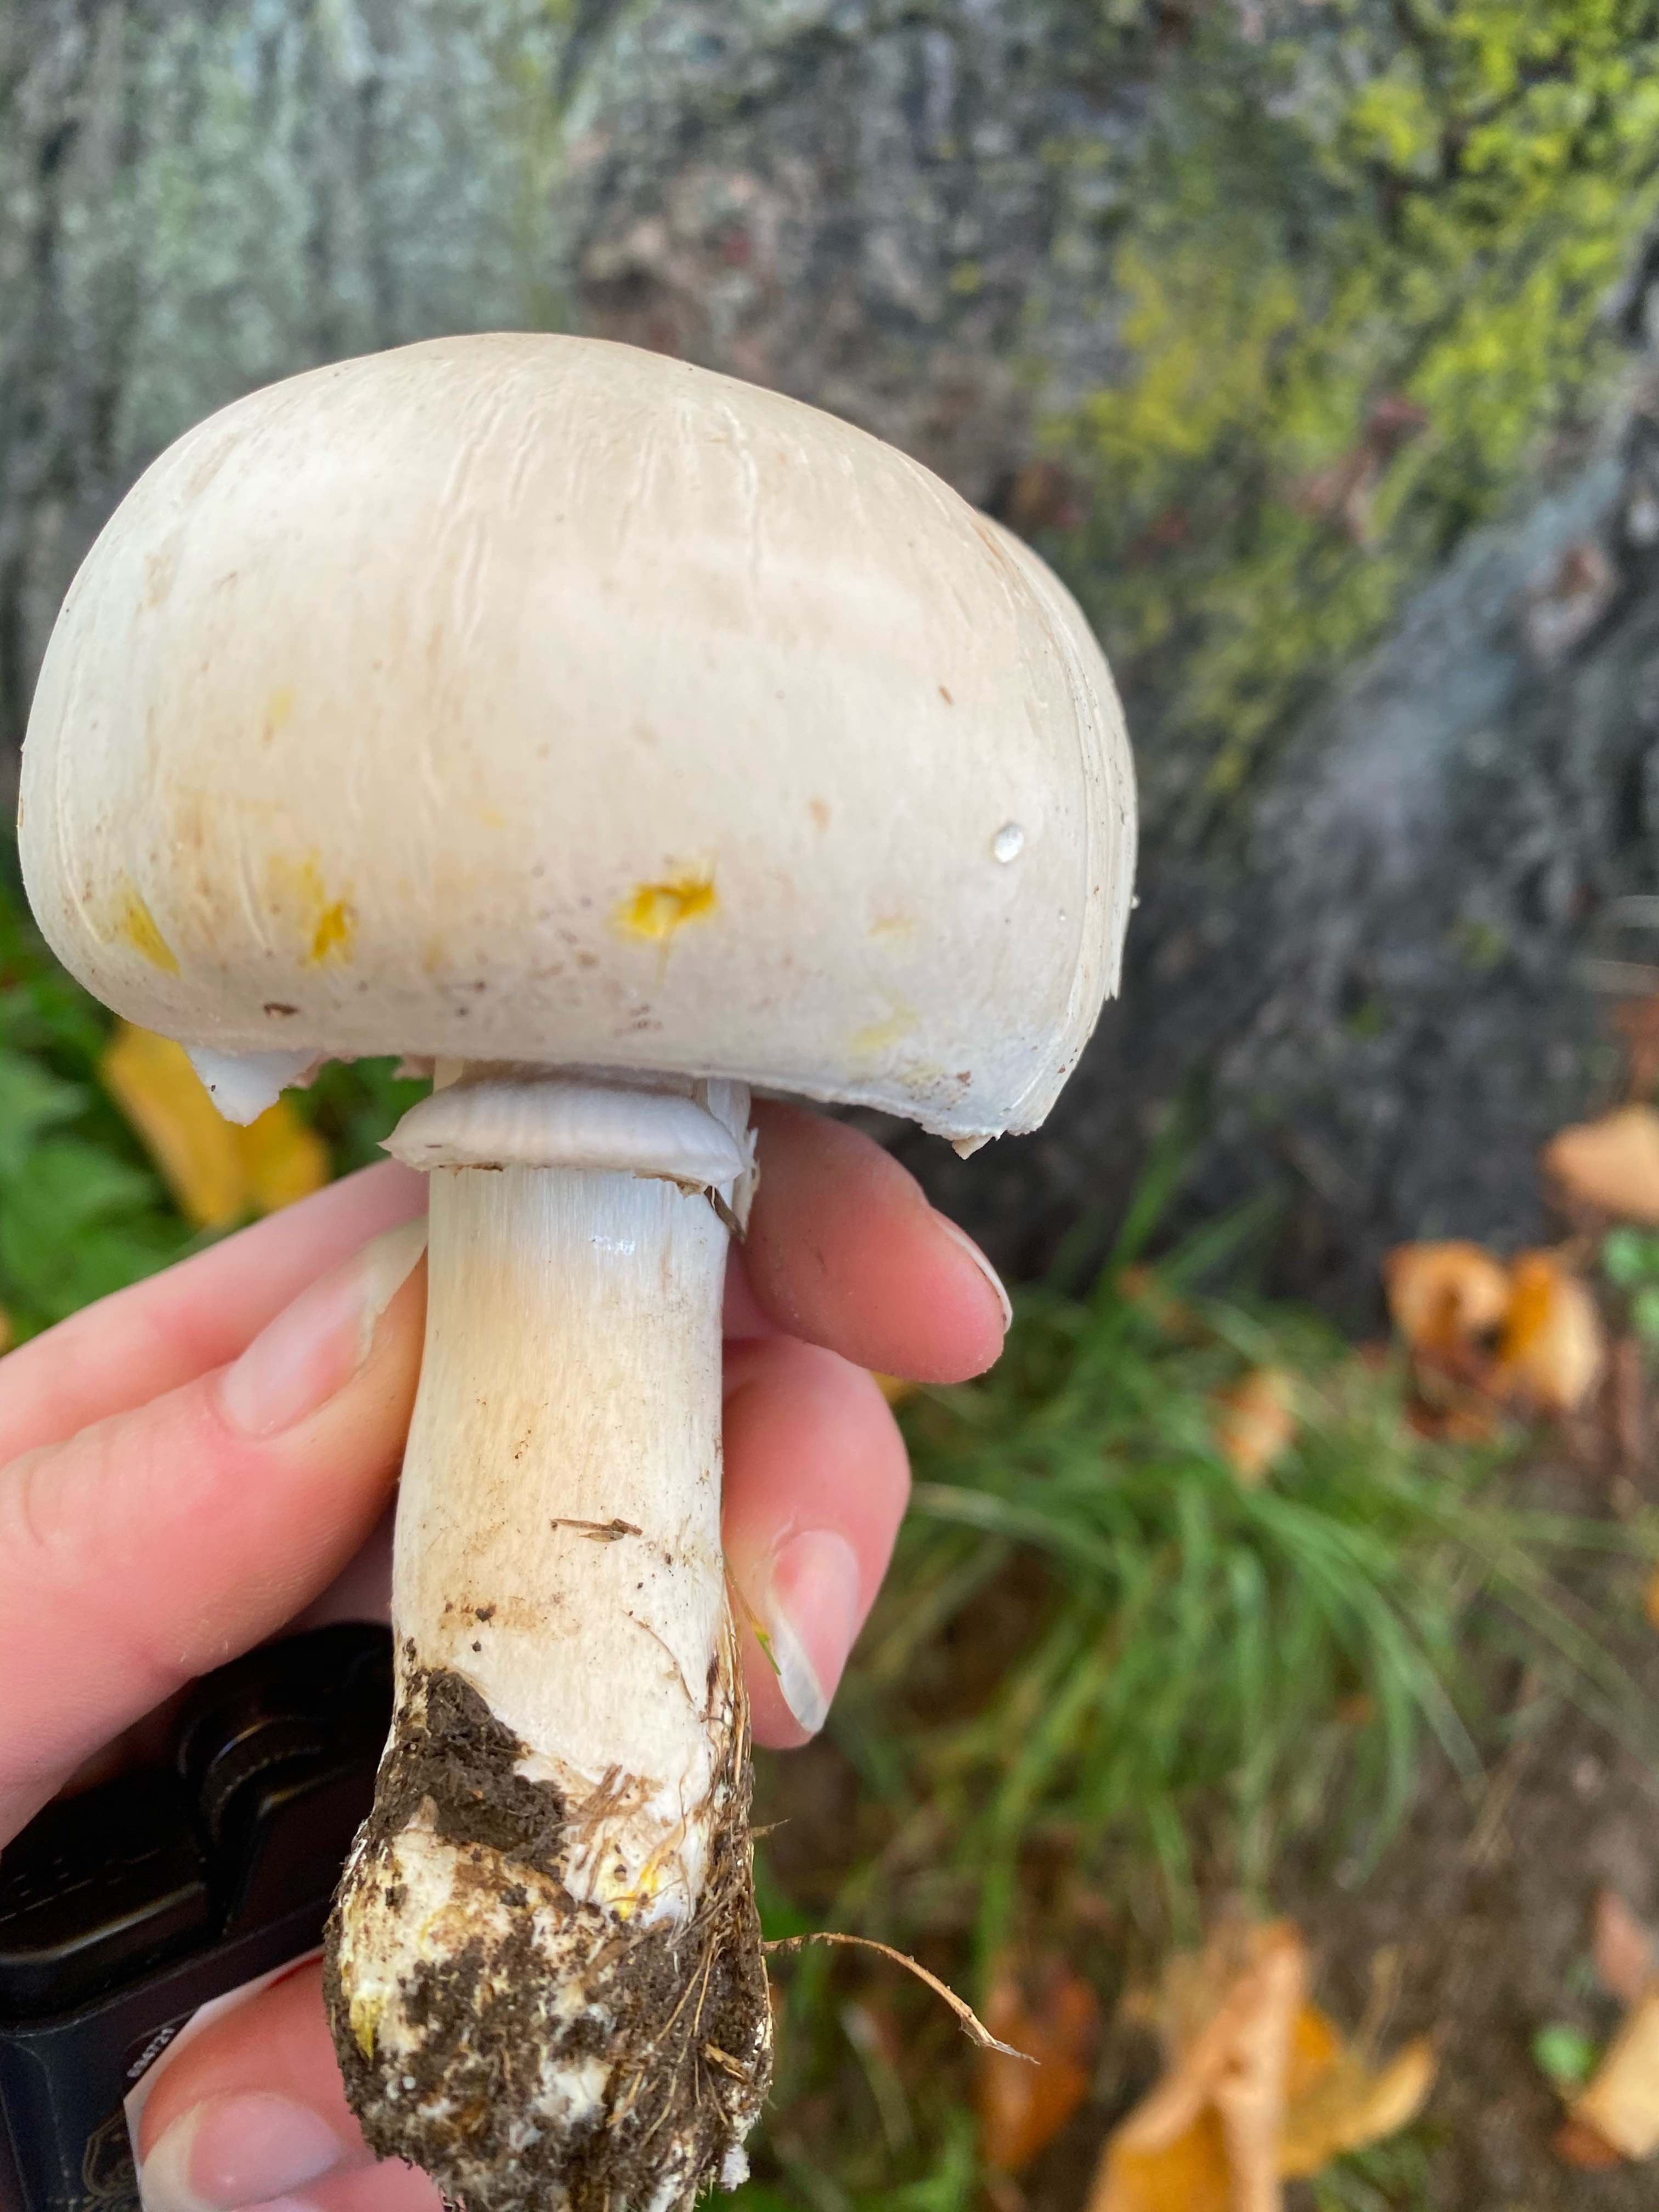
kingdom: Fungi
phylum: Basidiomycota
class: Agaricomycetes
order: Agaricales
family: Agaricaceae
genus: Agaricus
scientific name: Agaricus xanthodermus
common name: karbol-champignon
